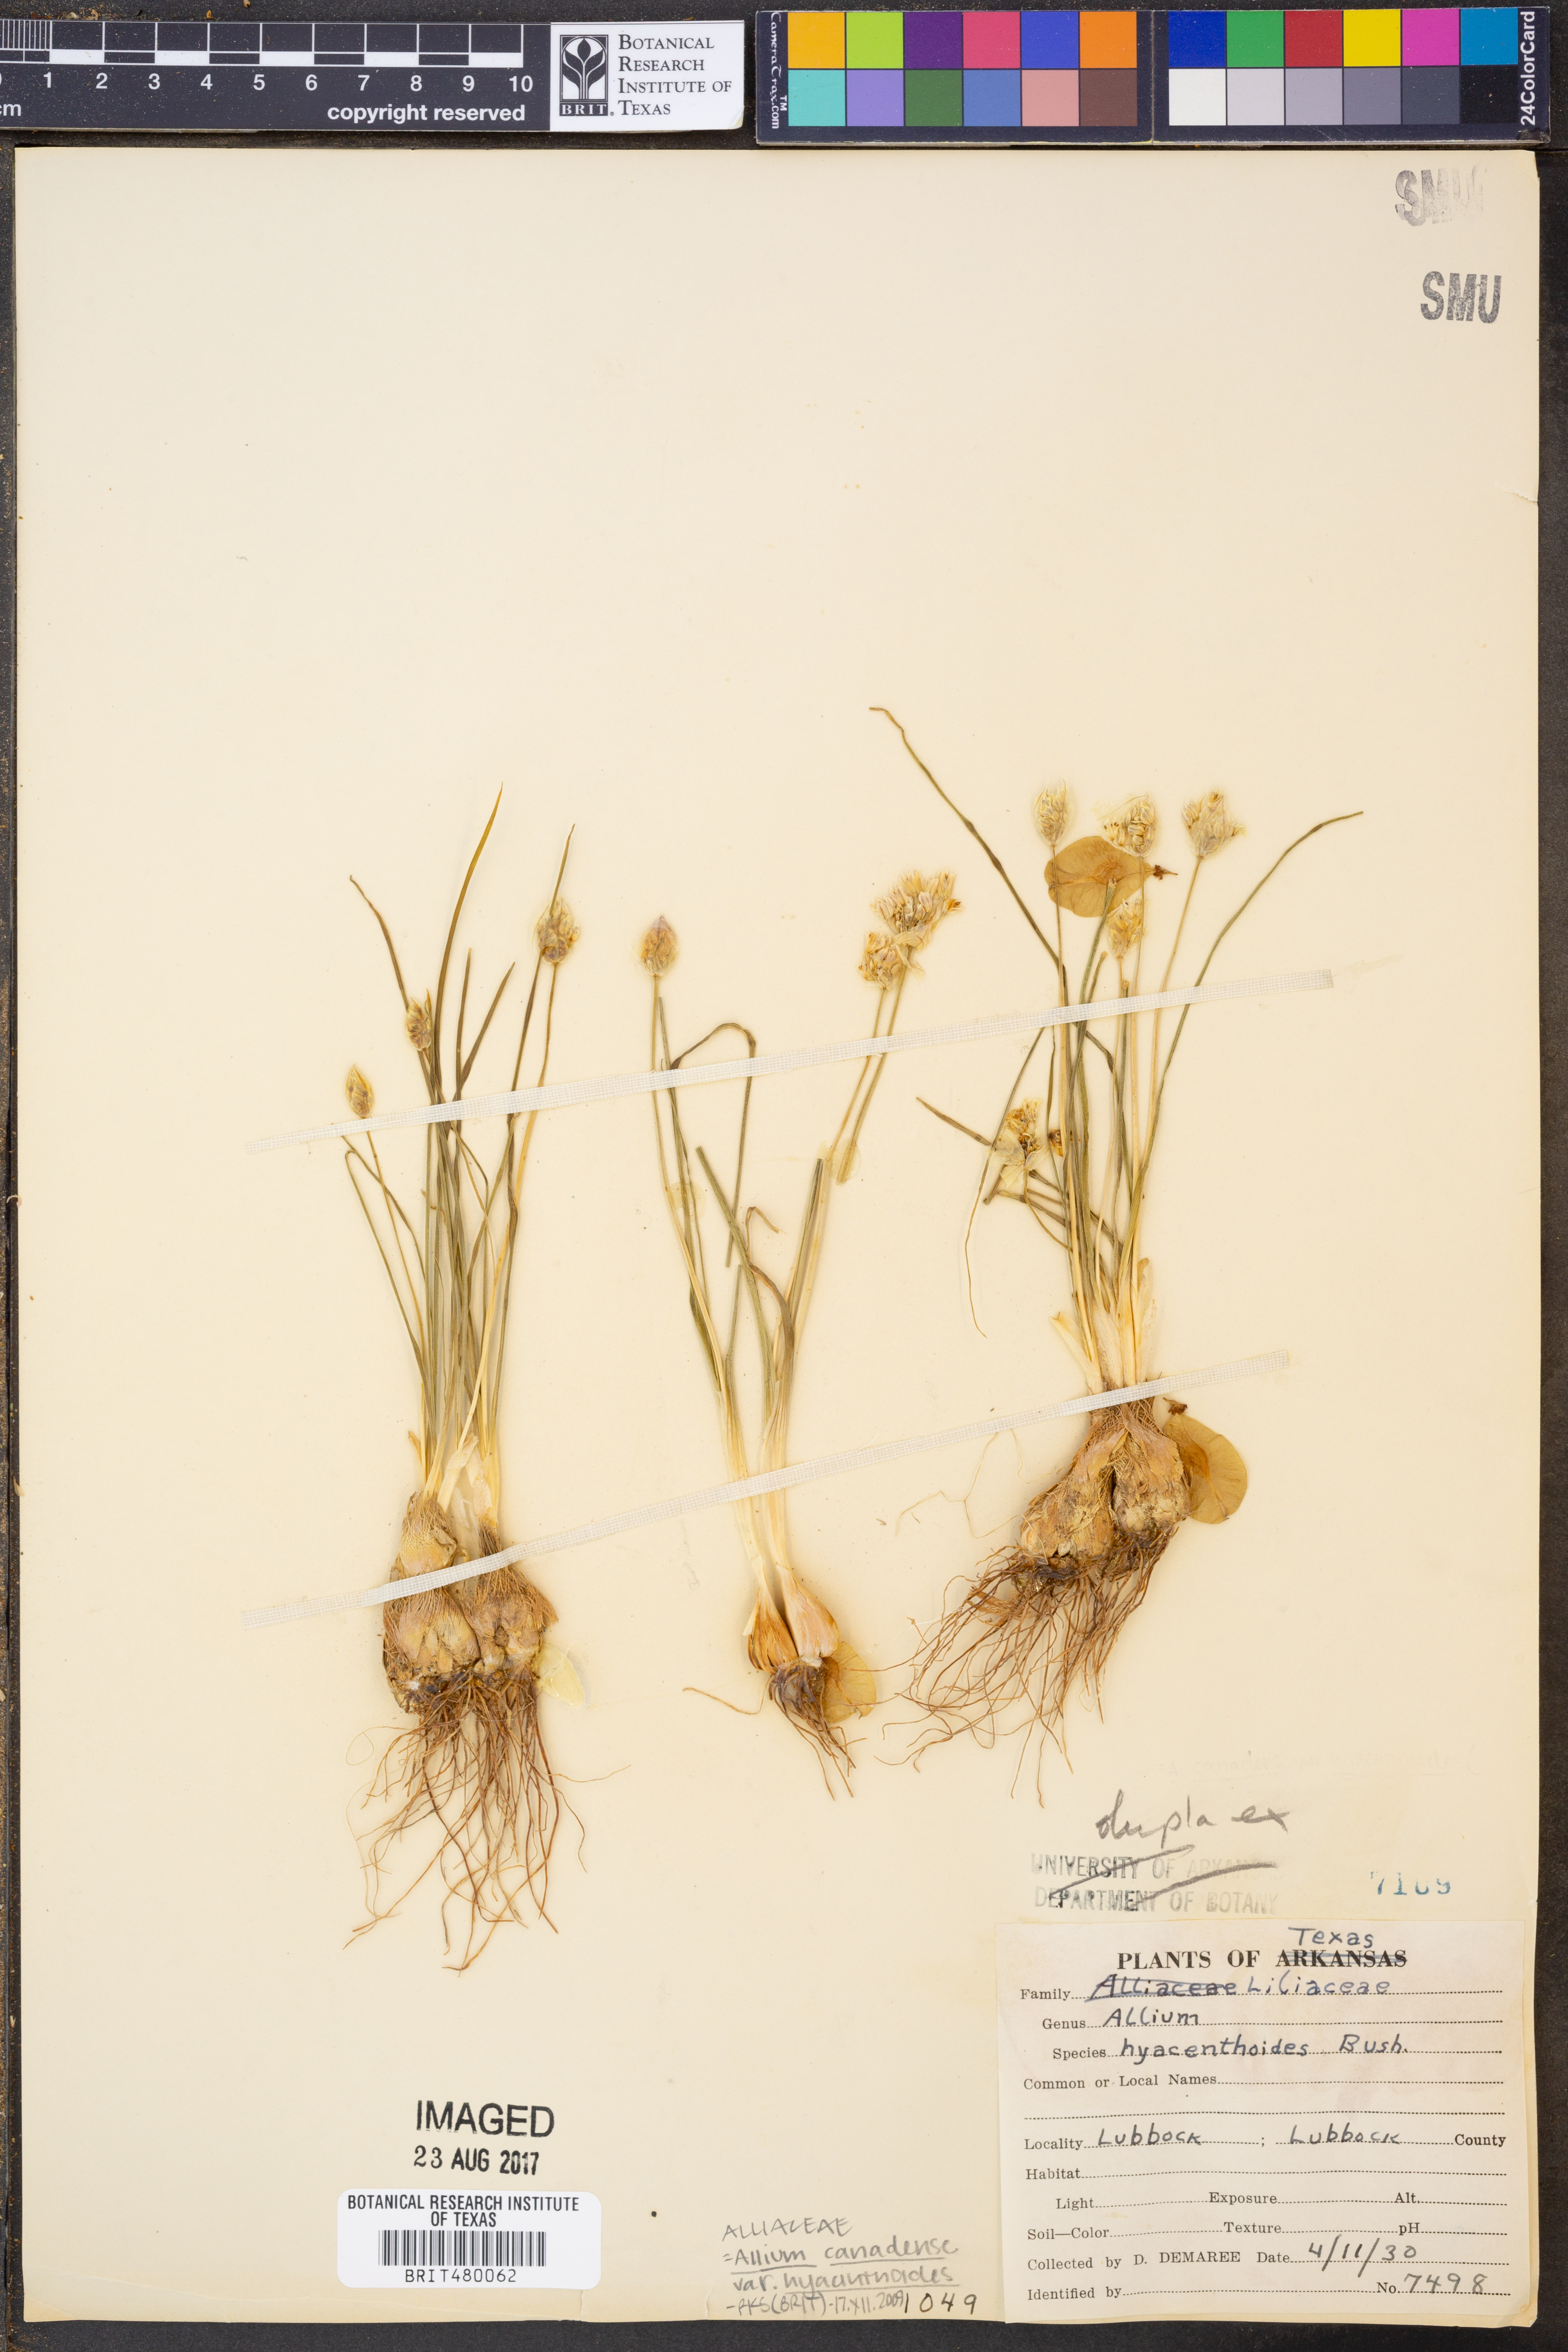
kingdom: Plantae
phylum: Tracheophyta
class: Liliopsida
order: Asparagales
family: Amaryllidaceae
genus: Allium
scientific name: Allium canadense
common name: Meadow garlic
